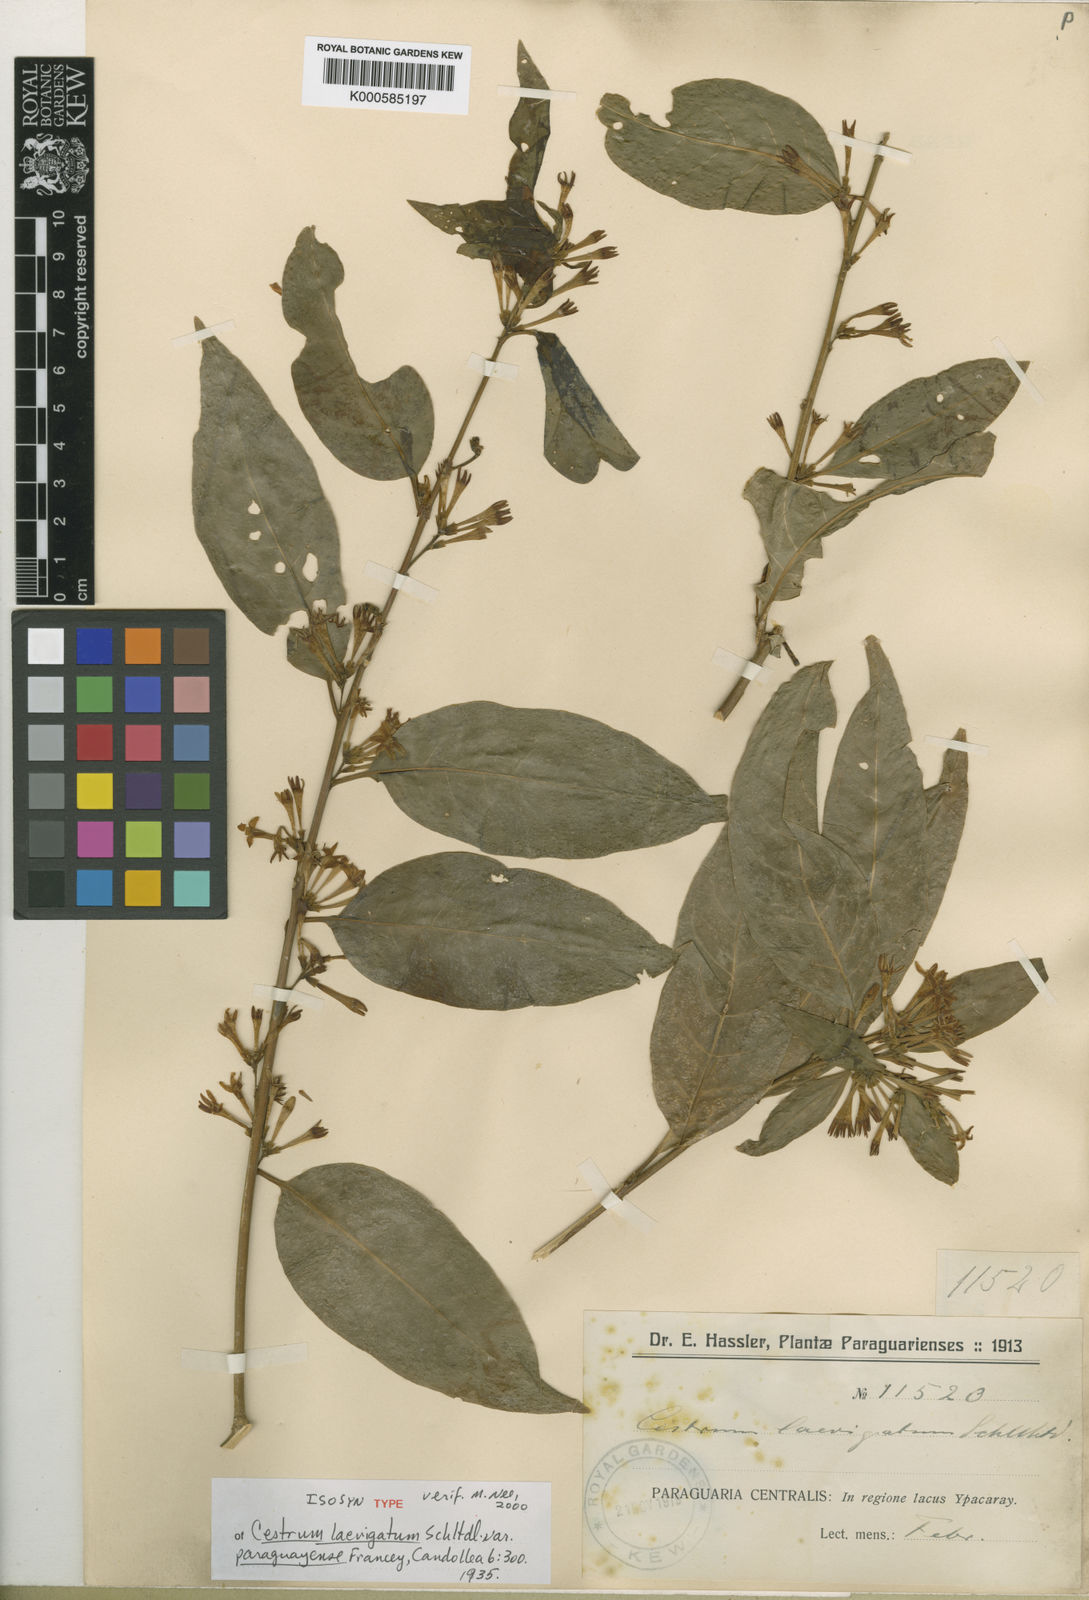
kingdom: Plantae
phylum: Tracheophyta
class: Magnoliopsida
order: Solanales
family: Solanaceae
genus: Cestrum
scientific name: Cestrum laevigatum
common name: Inkberry
